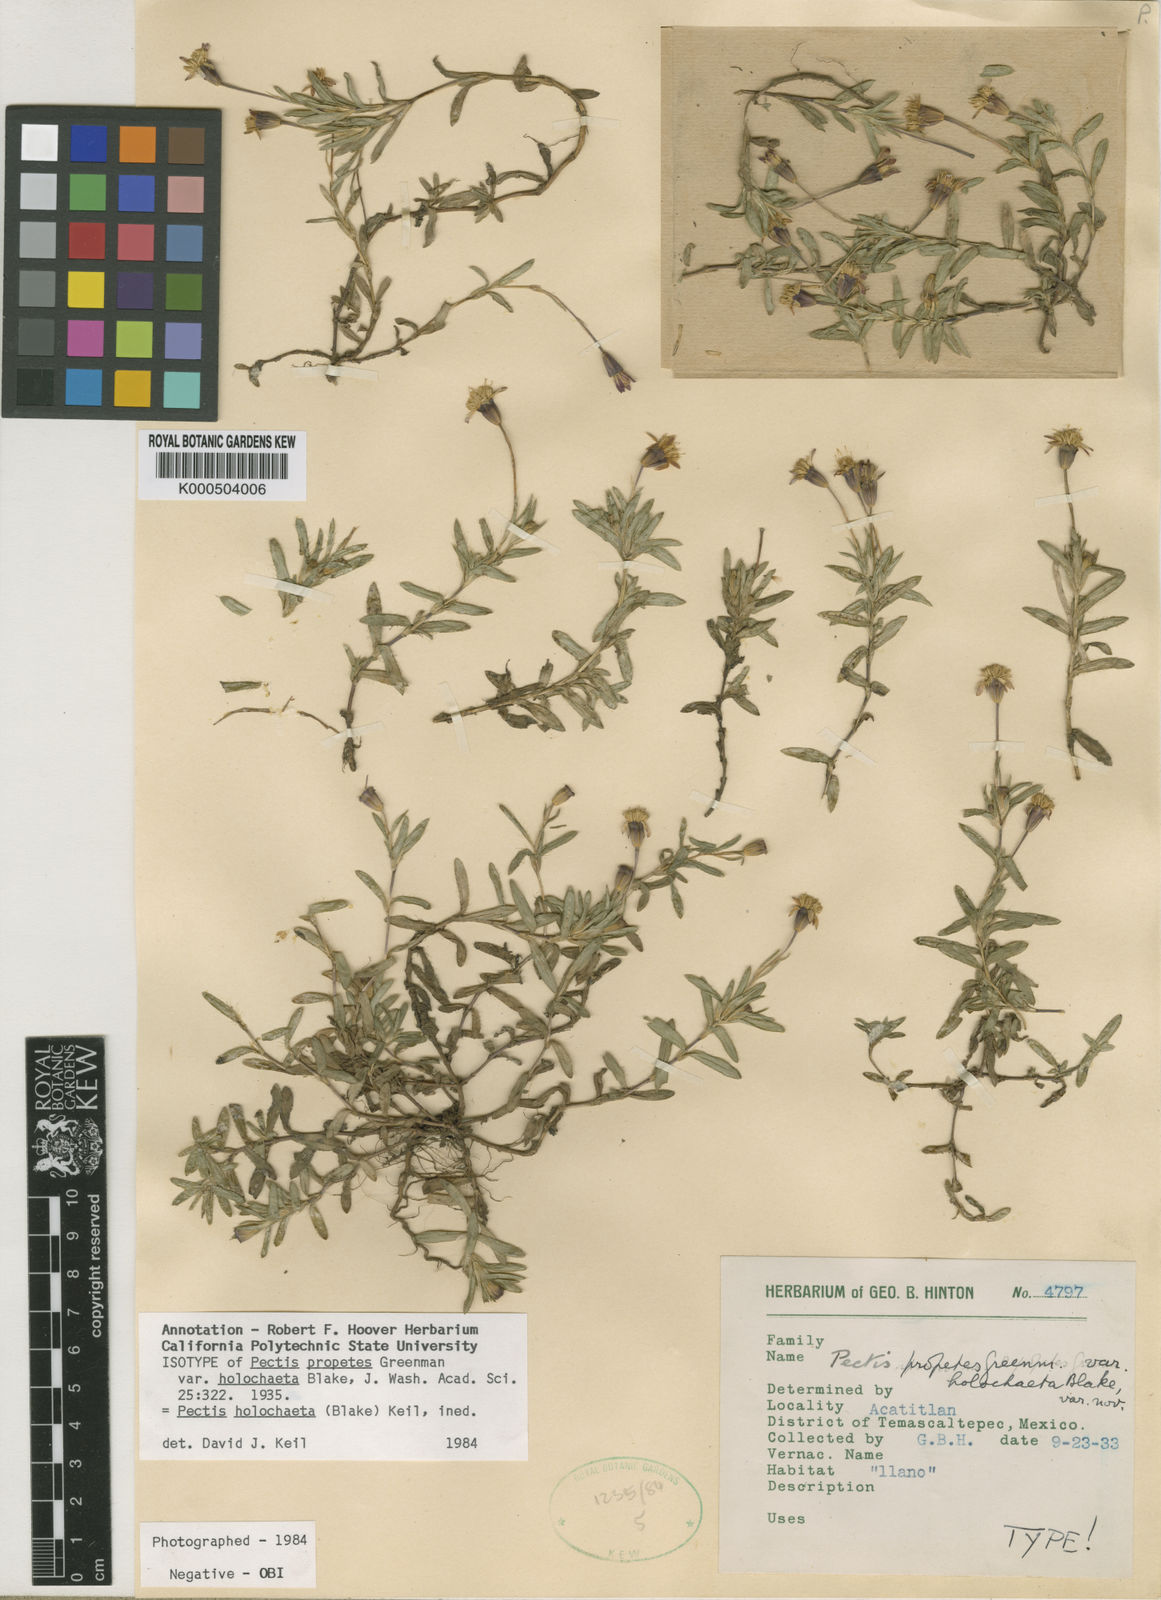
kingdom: Plantae
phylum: Tracheophyta
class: Magnoliopsida
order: Asterales
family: Asteraceae
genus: Pectis
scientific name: Pectis holochaeta
